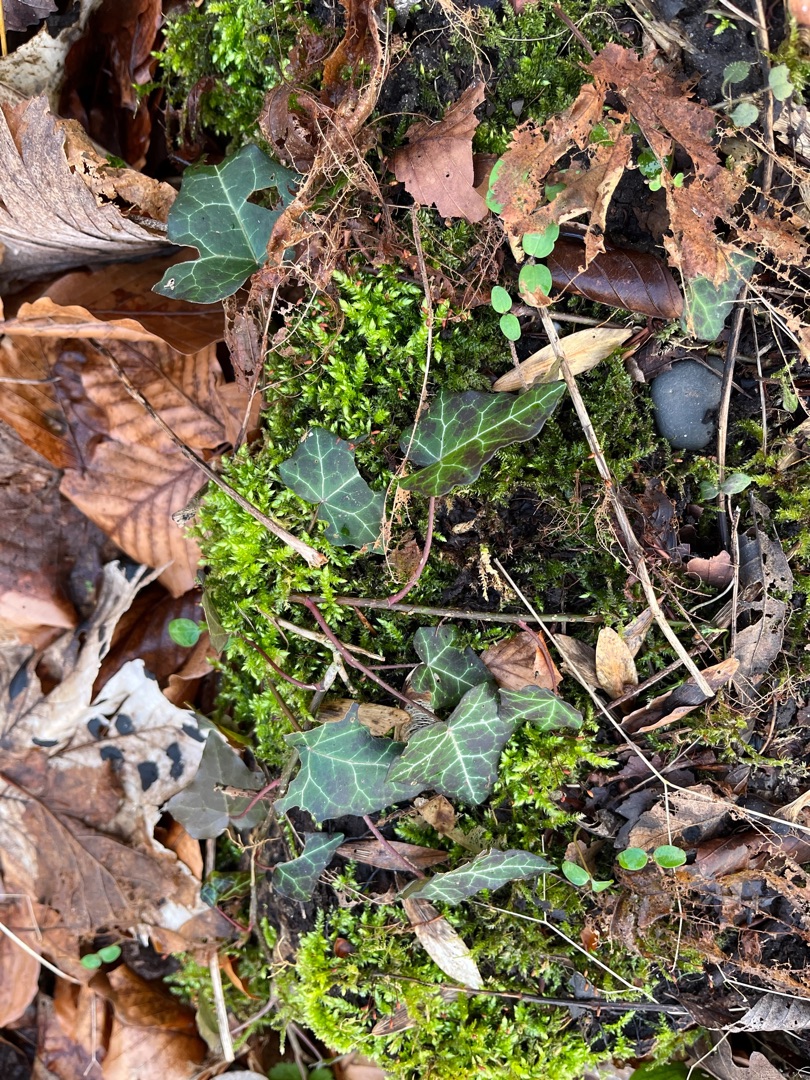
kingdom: Plantae
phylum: Tracheophyta
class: Magnoliopsida
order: Apiales
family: Araliaceae
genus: Hedera
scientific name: Hedera helix
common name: Vedbend
